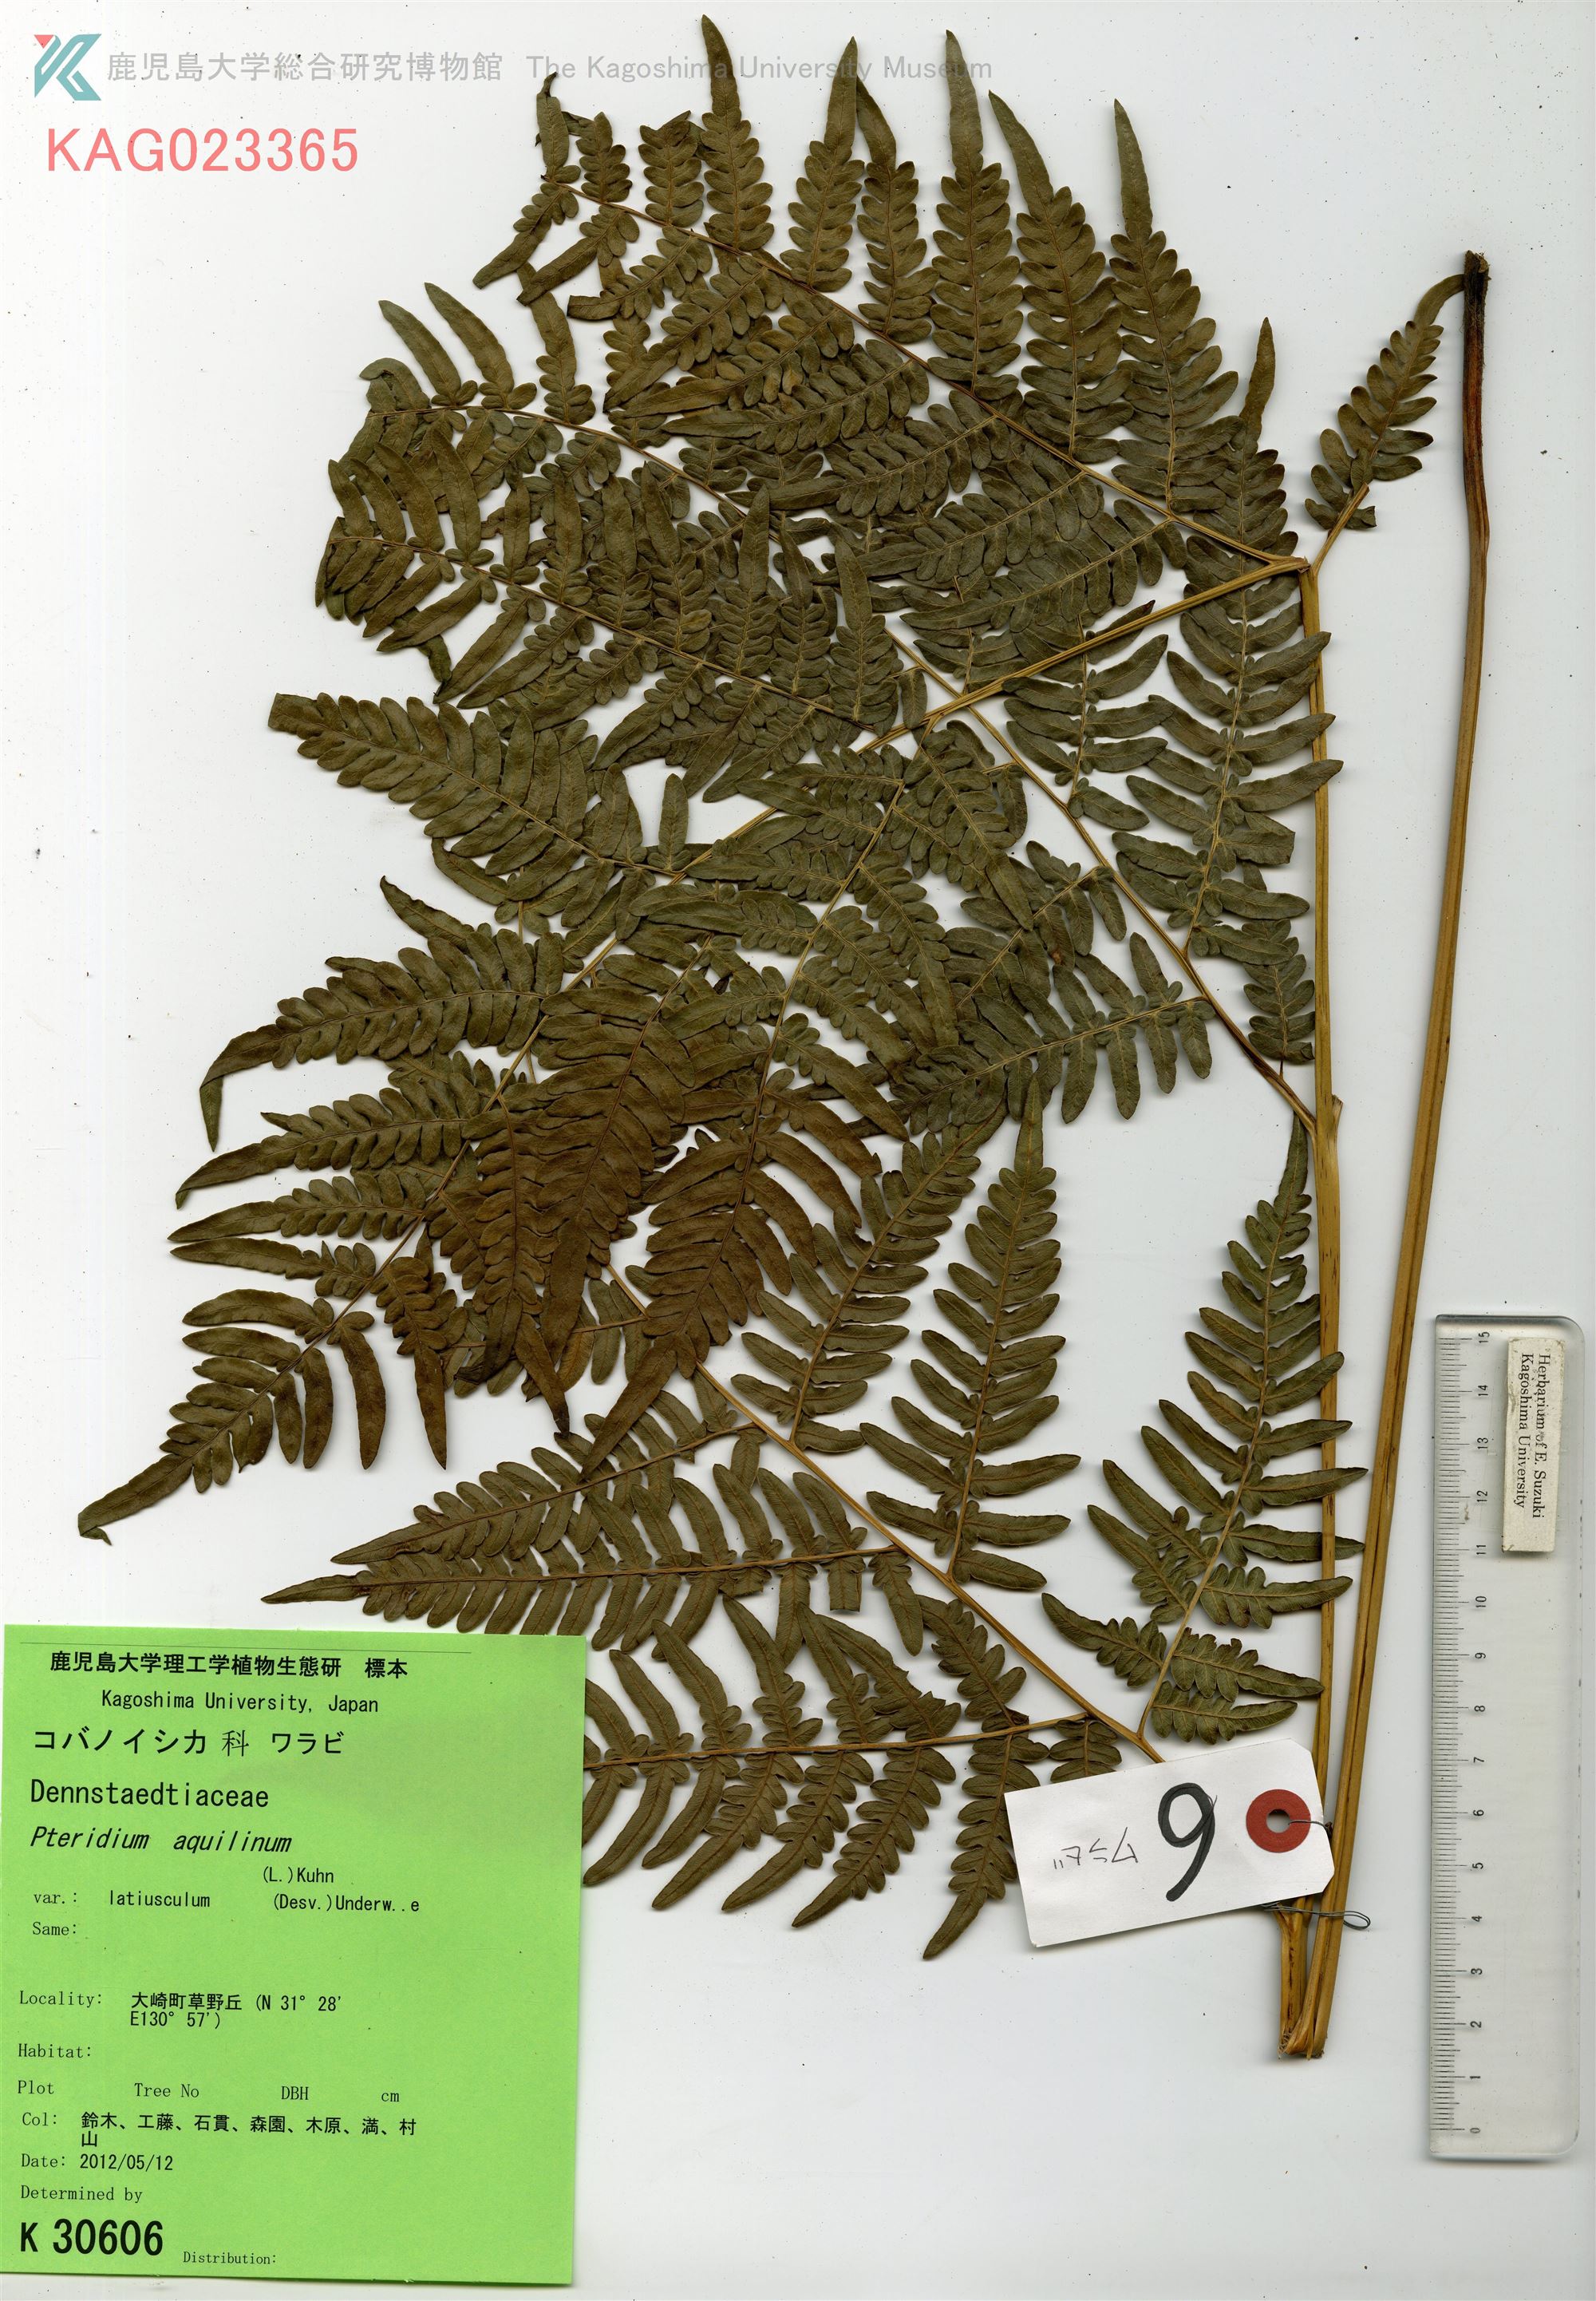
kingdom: Plantae
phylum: Tracheophyta
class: Polypodiopsida
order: Polypodiales
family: Dennstaedtiaceae
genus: Pteridium
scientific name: Pteridium aquilinum
